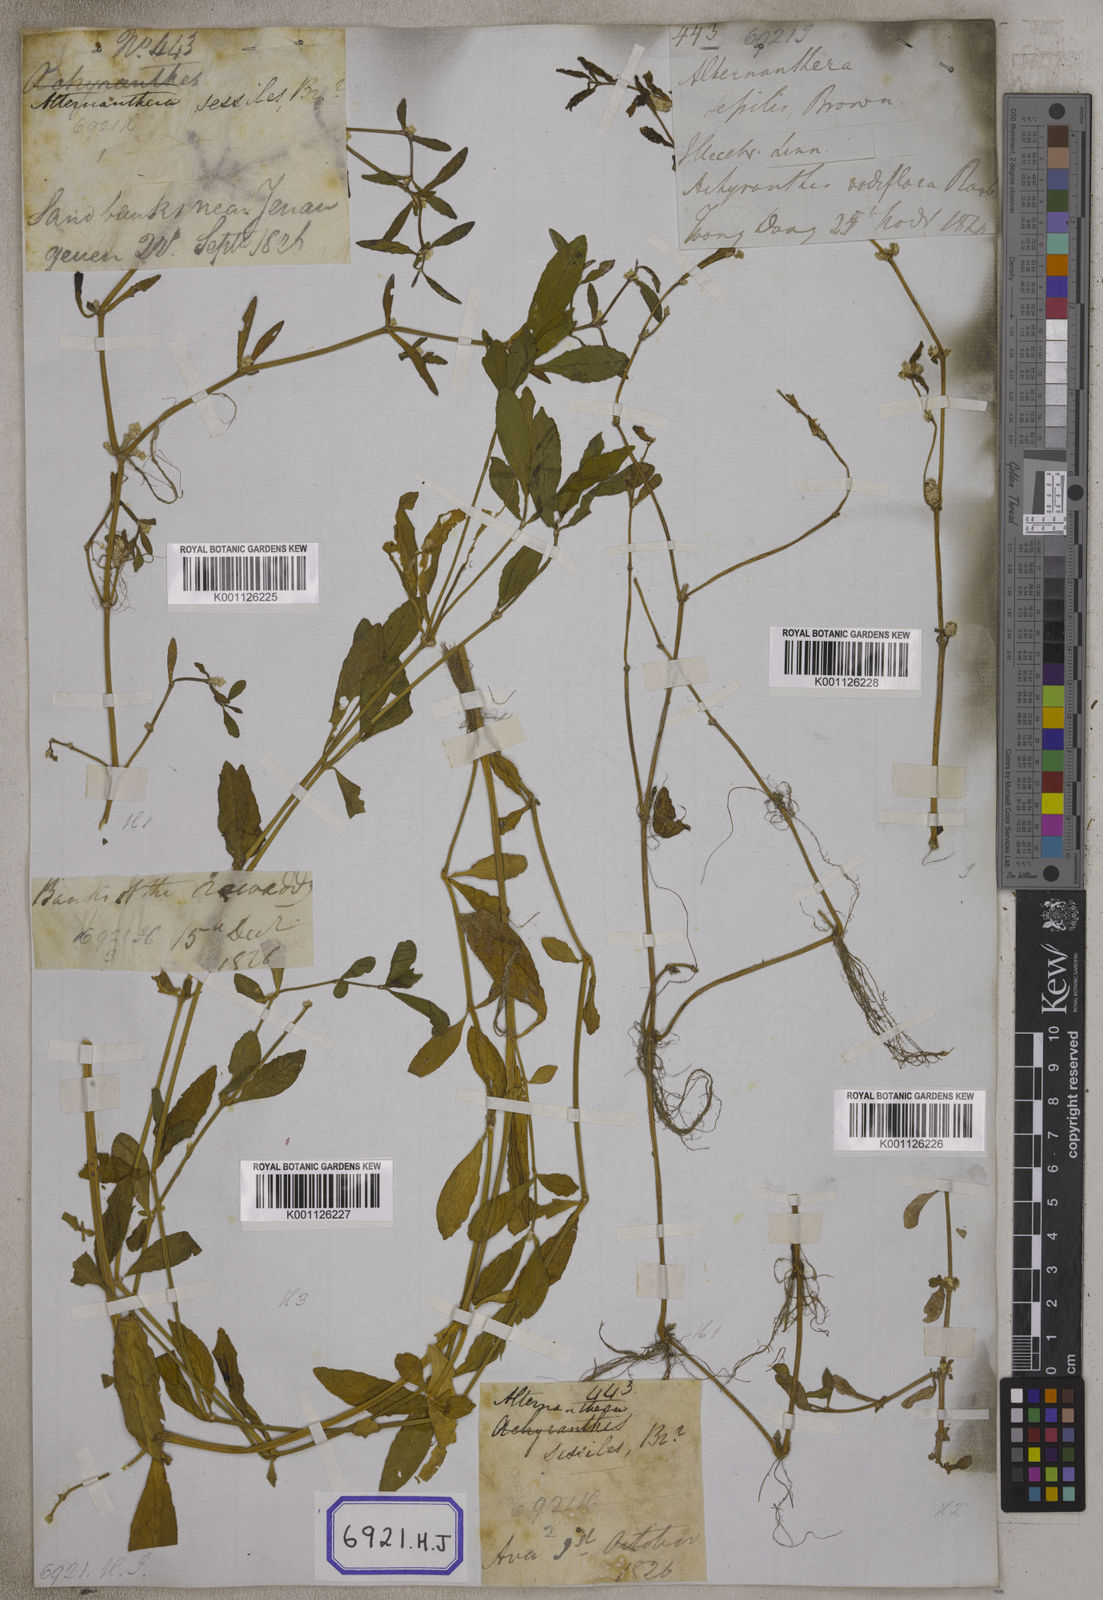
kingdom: Plantae
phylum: Tracheophyta
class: Magnoliopsida
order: Caryophyllales
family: Amaranthaceae
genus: Alternanthera
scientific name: Alternanthera
